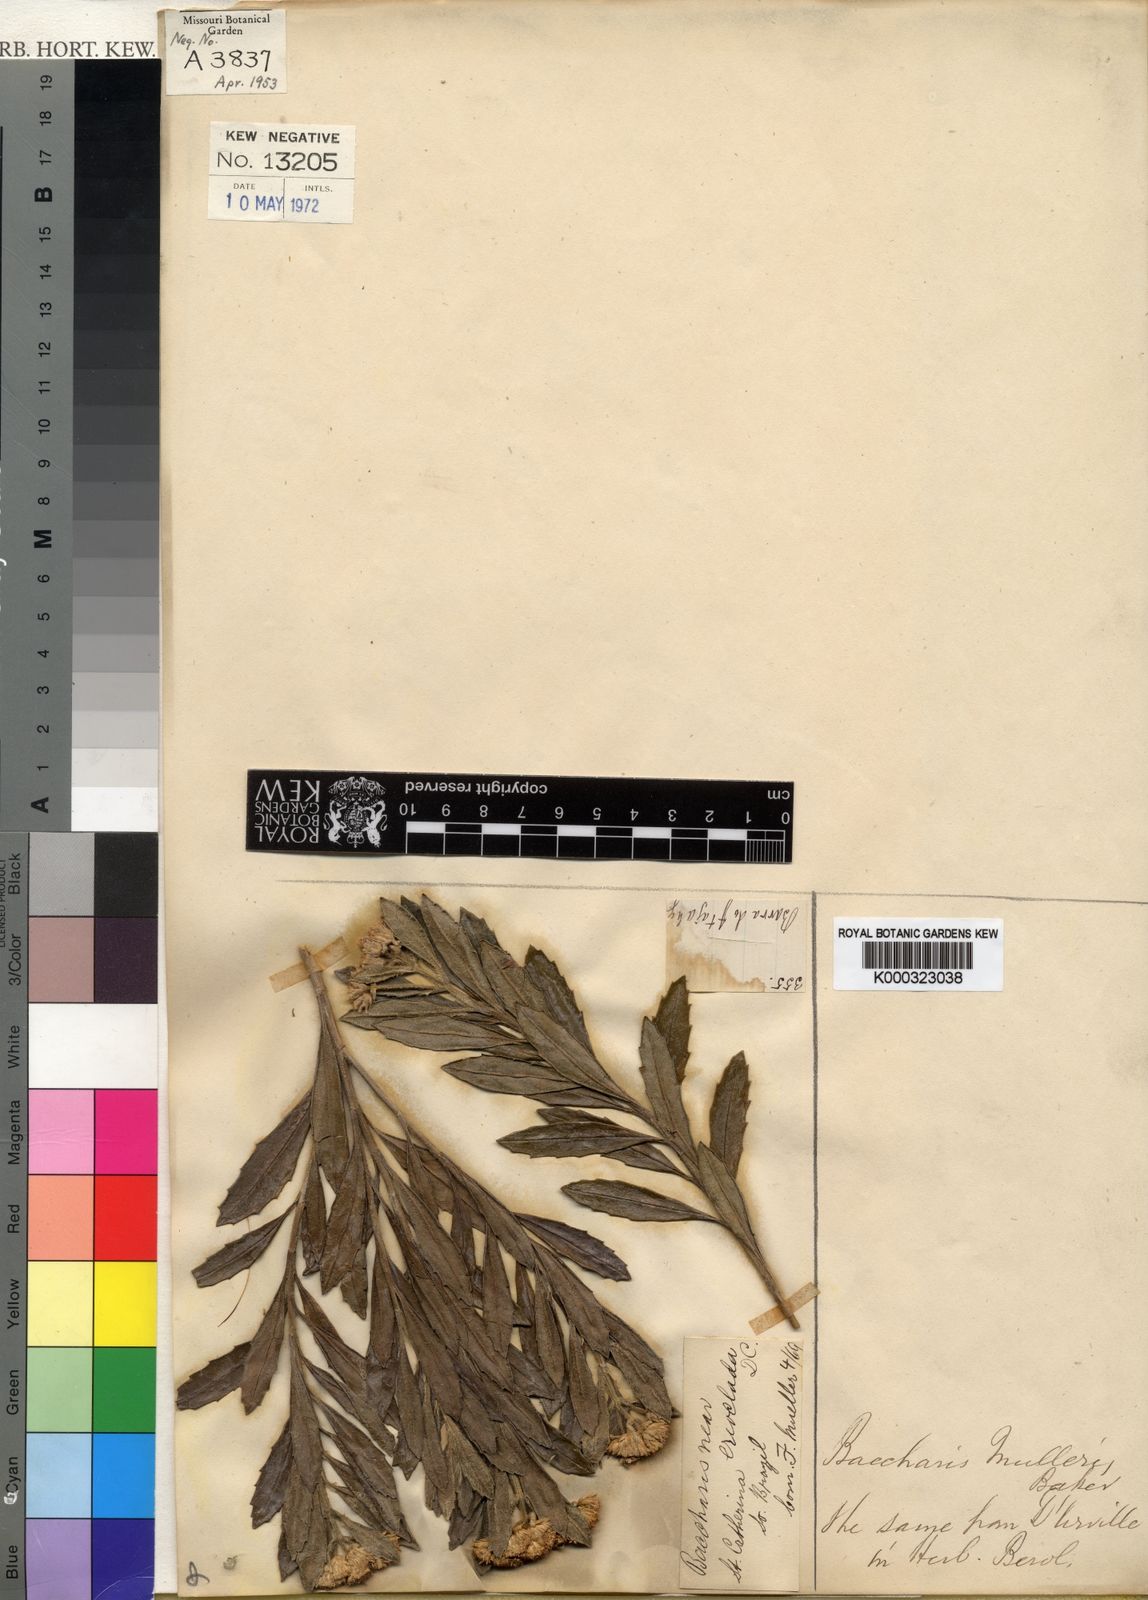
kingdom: Plantae
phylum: Tracheophyta
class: Magnoliopsida
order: Asterales
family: Asteraceae
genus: Baccharis
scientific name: Baccharis muelleri
